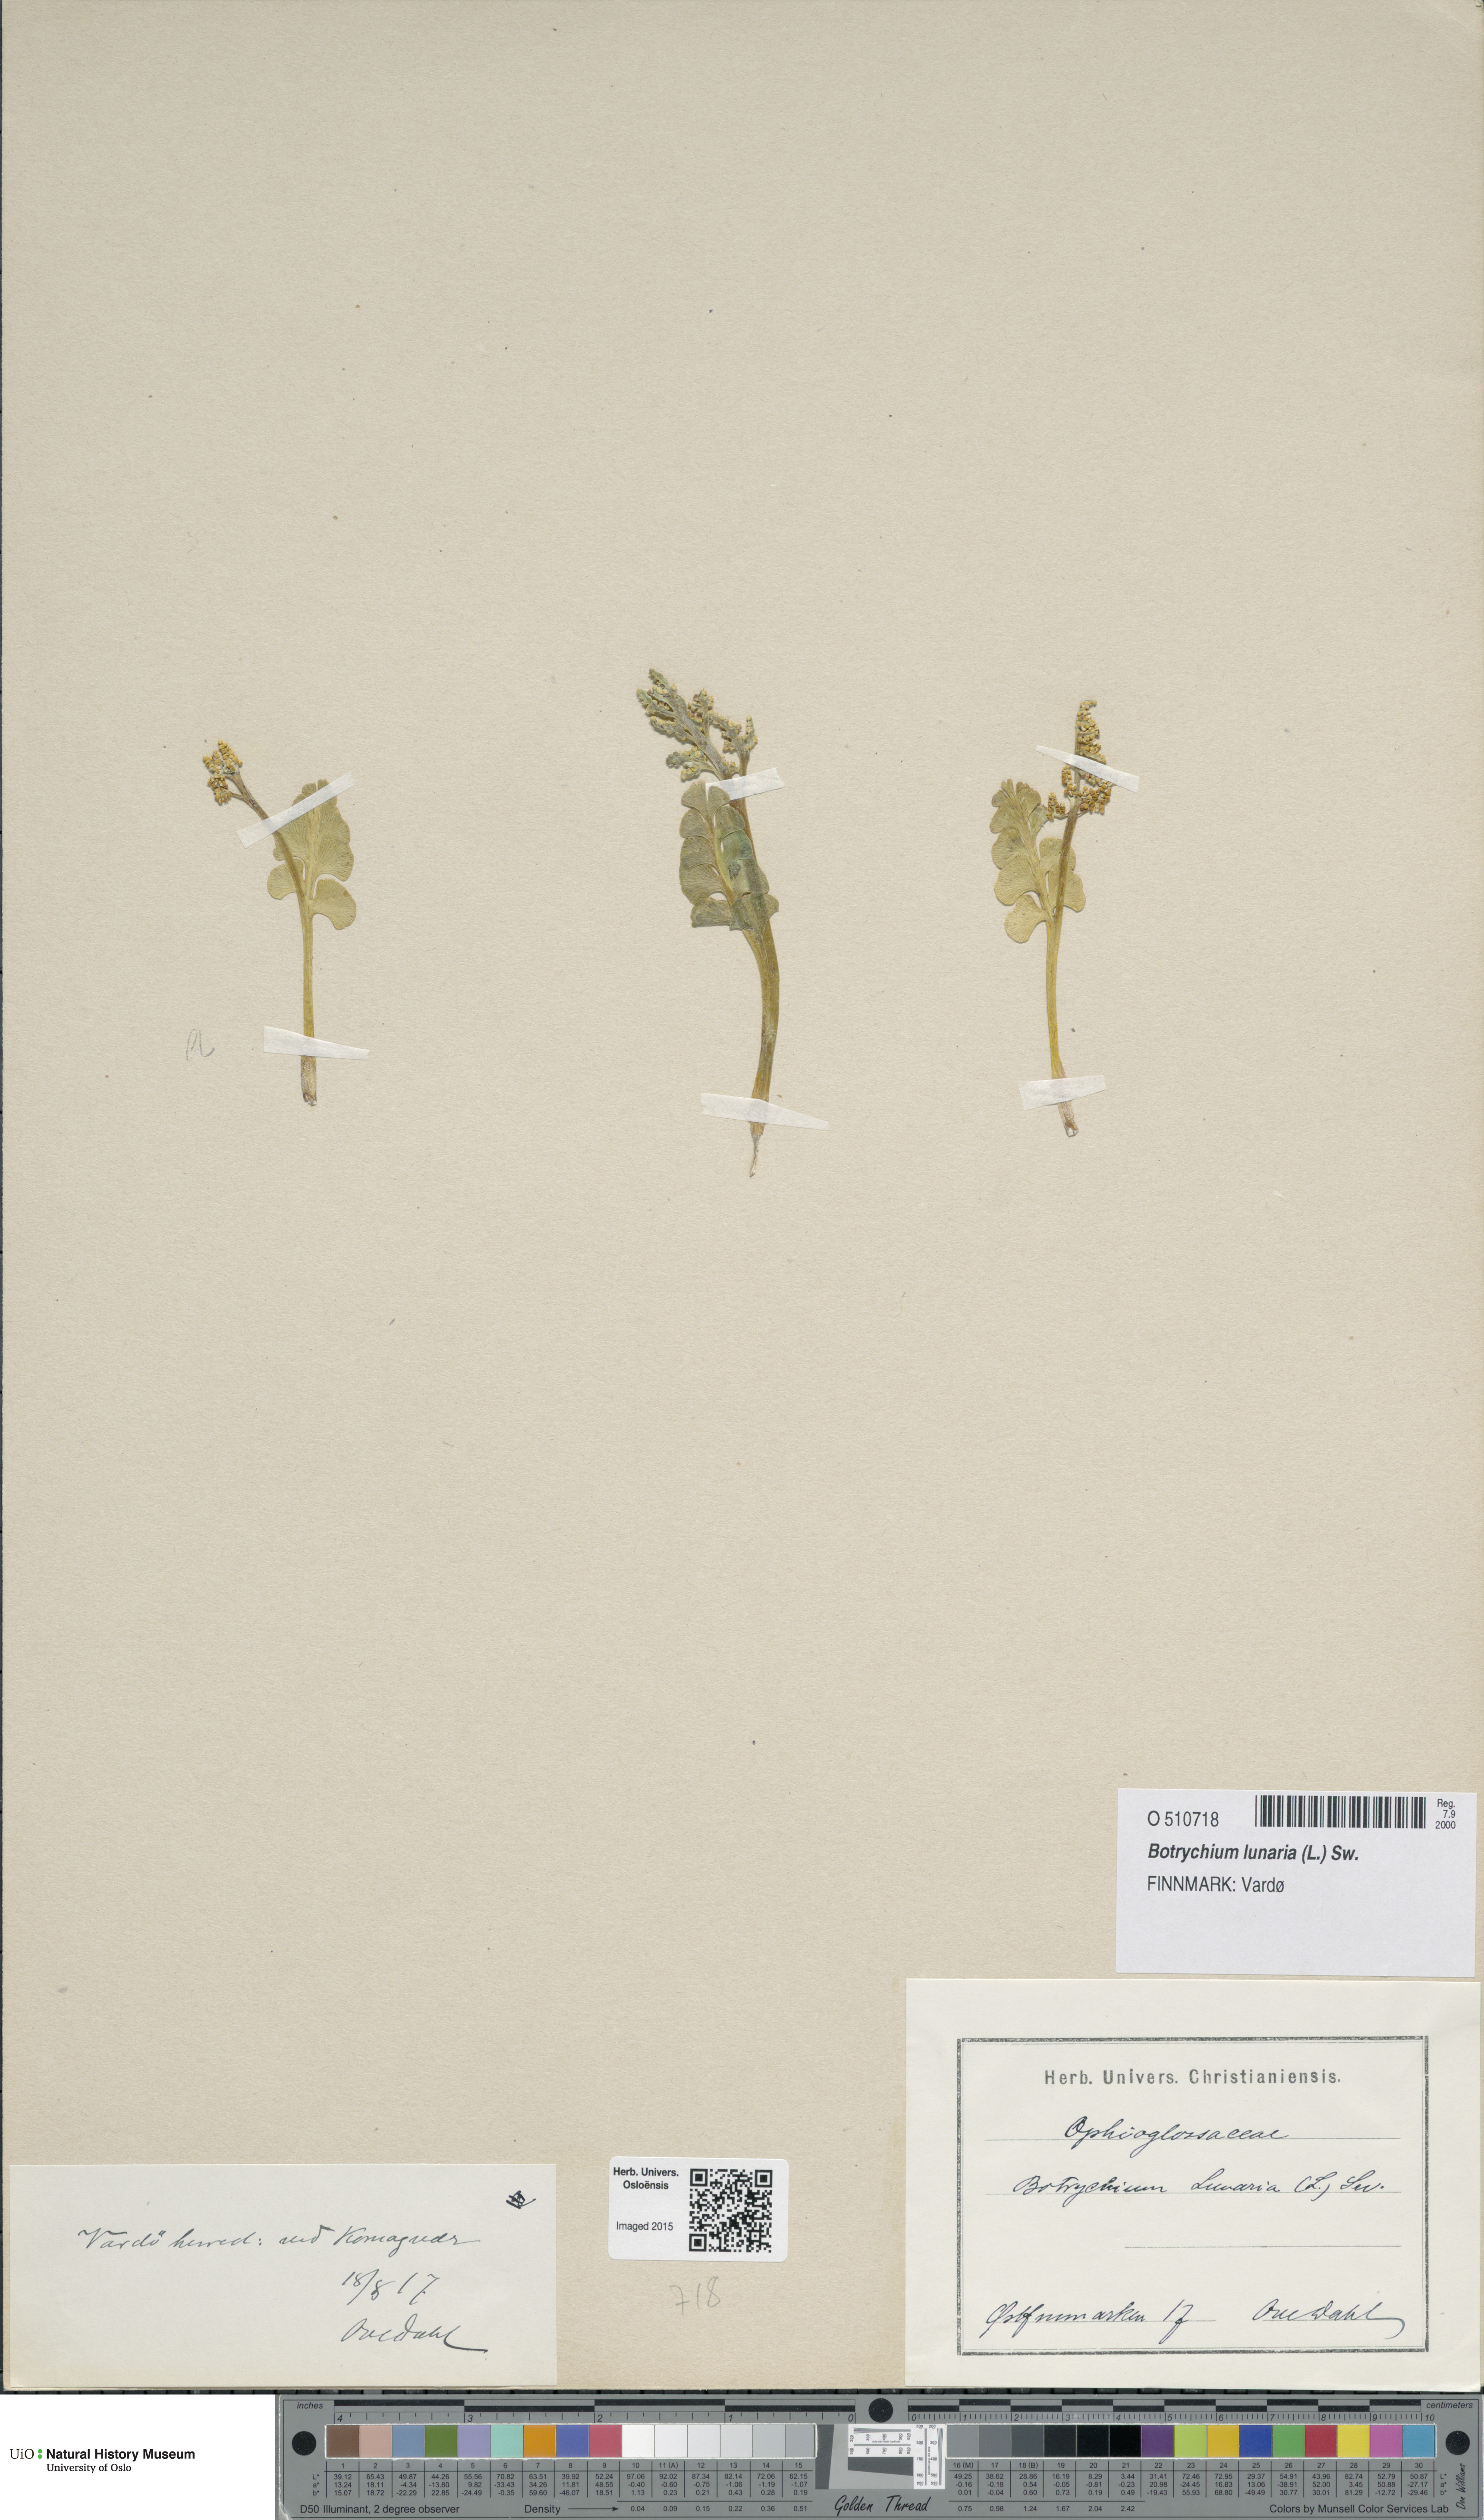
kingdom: Plantae
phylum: Tracheophyta
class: Polypodiopsida
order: Ophioglossales
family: Ophioglossaceae
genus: Botrychium
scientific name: Botrychium lunaria
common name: Moonwort
